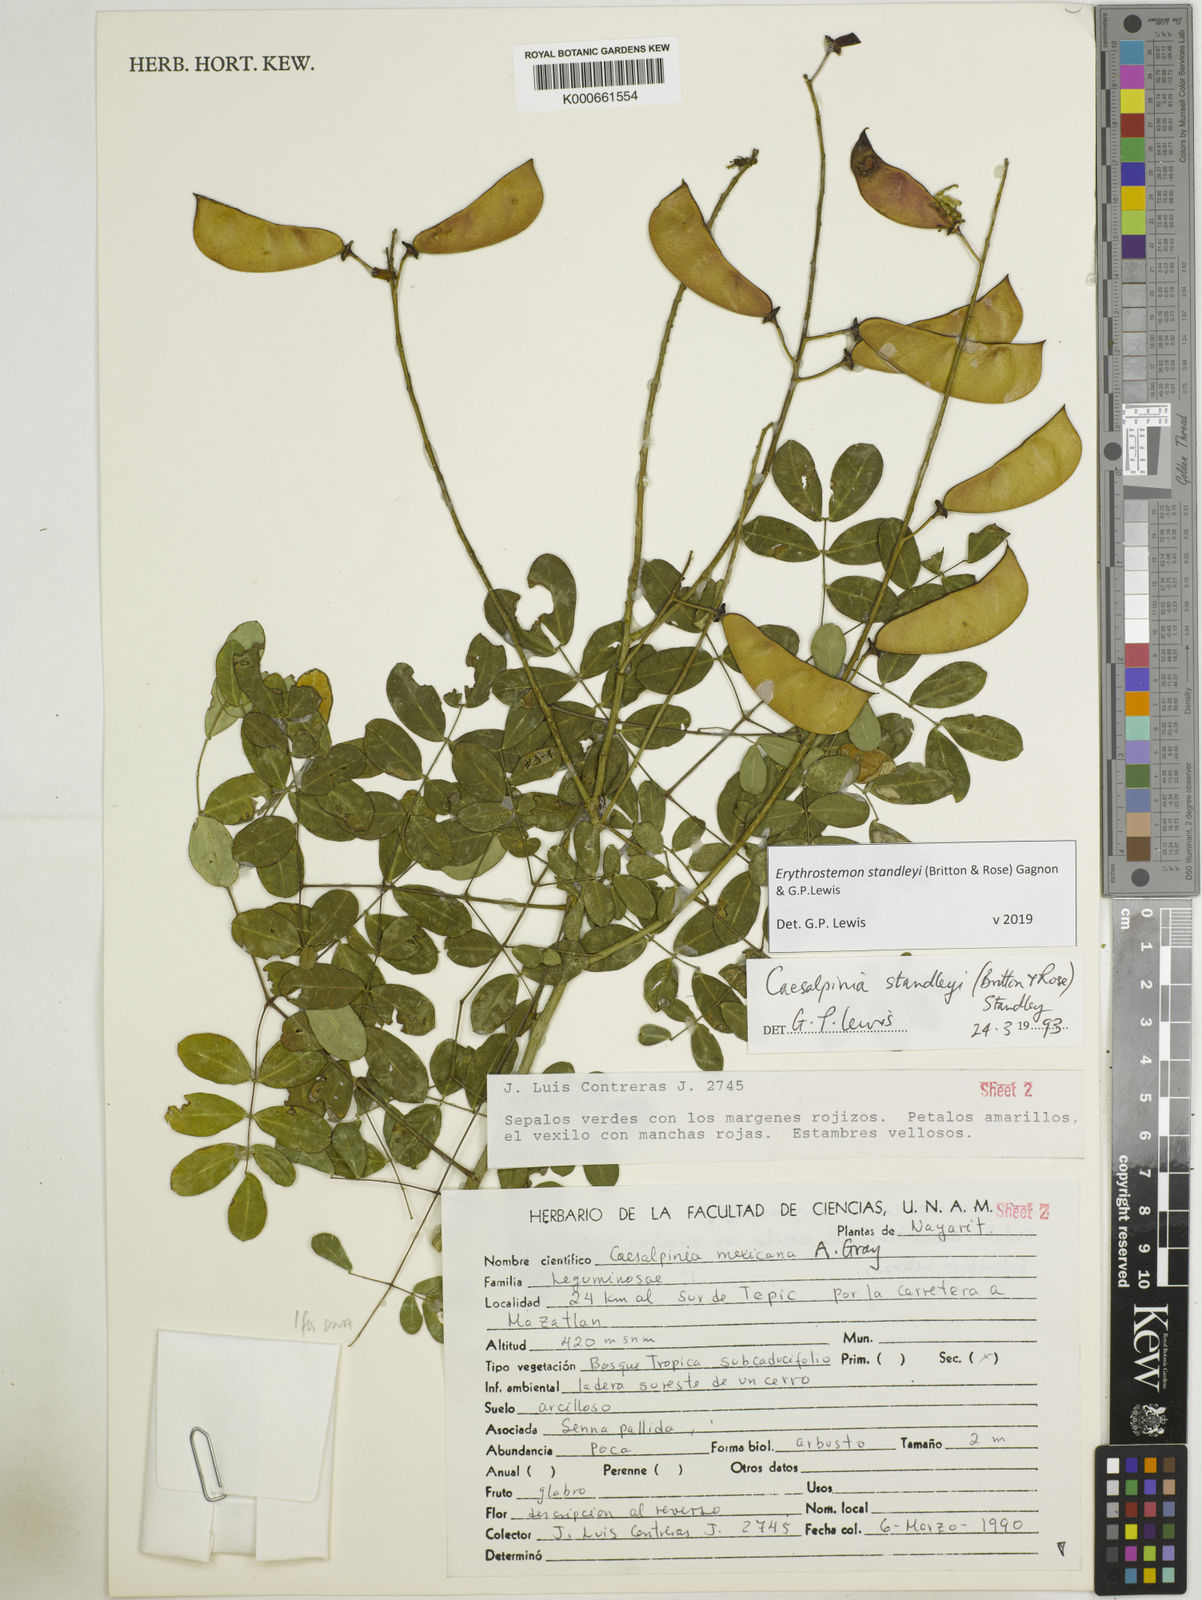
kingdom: Plantae
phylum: Tracheophyta
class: Magnoliopsida
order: Fabales
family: Fabaceae
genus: Erythrostemon
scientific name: Erythrostemon standleyi
